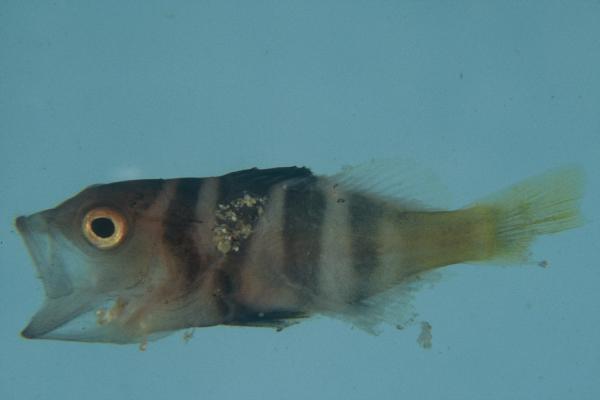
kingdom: Animalia
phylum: Chordata
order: Perciformes
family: Serranidae
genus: Plectropomus
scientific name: Plectropomus laevis
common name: Chinese footballer
